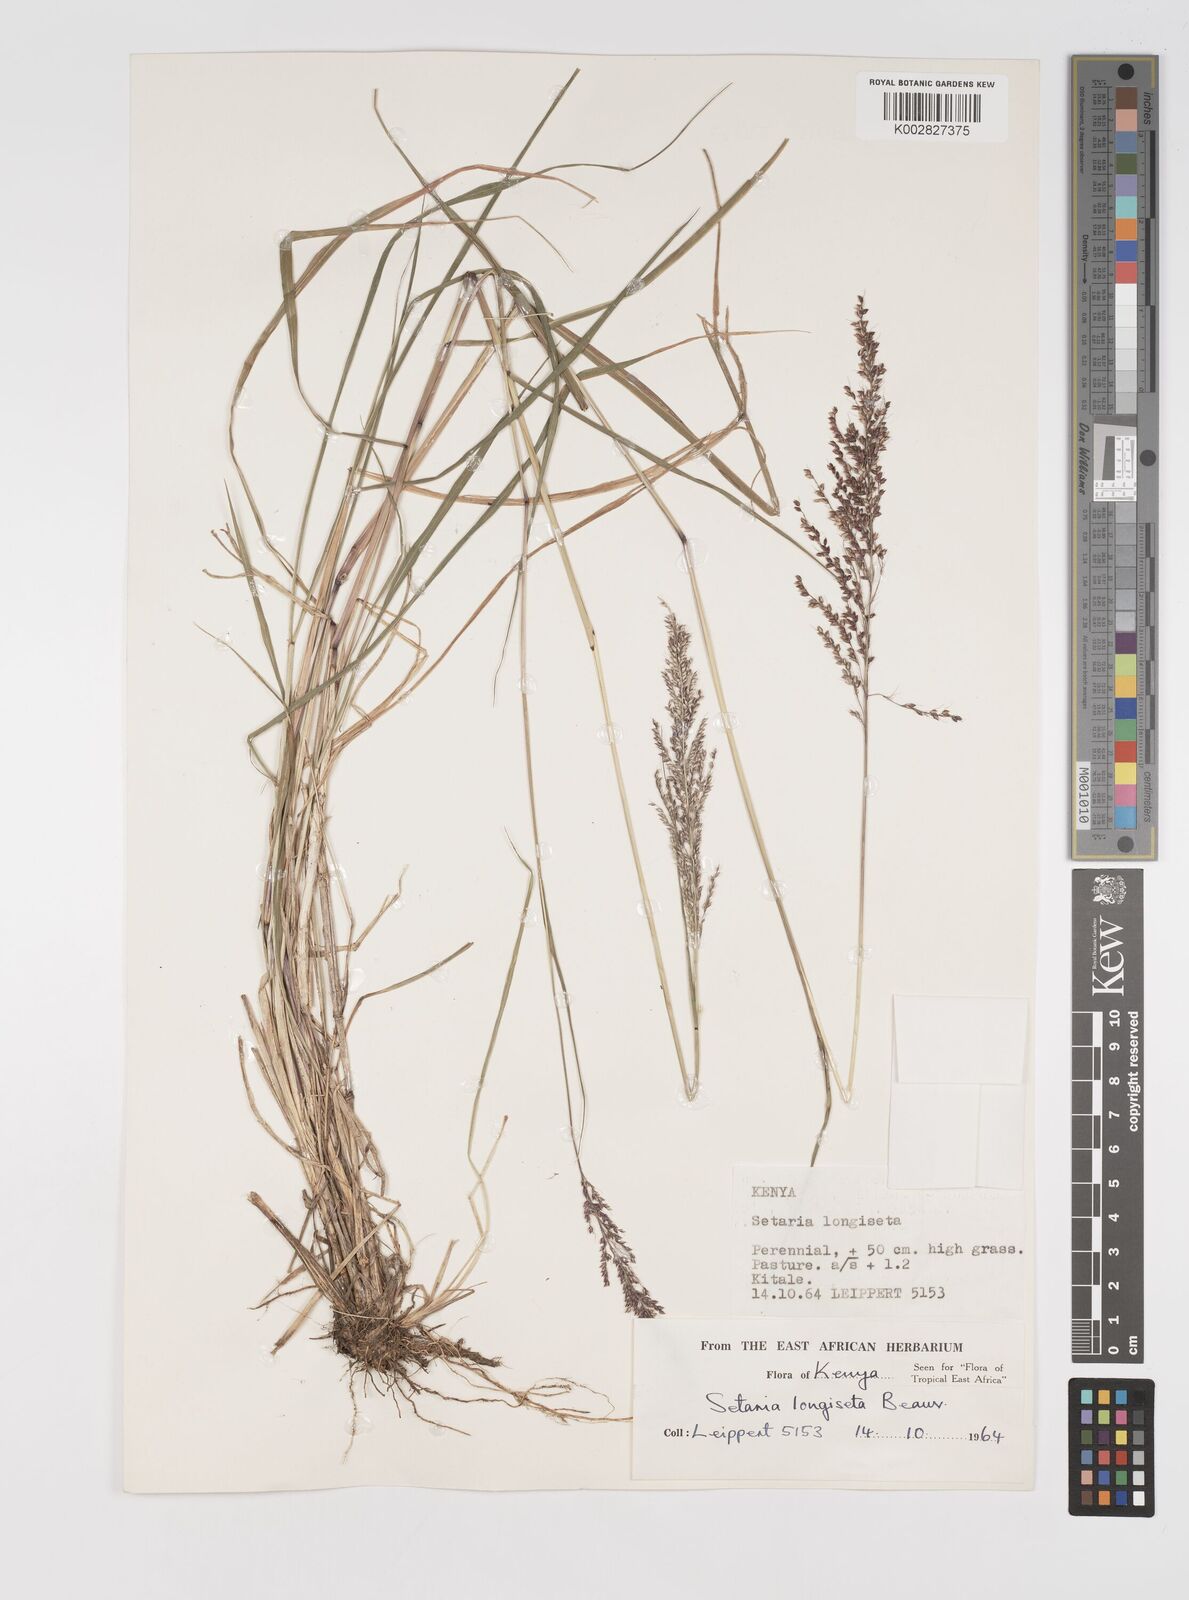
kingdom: Plantae
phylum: Tracheophyta
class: Liliopsida
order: Poales
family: Poaceae
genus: Setaria
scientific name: Setaria longiseta
